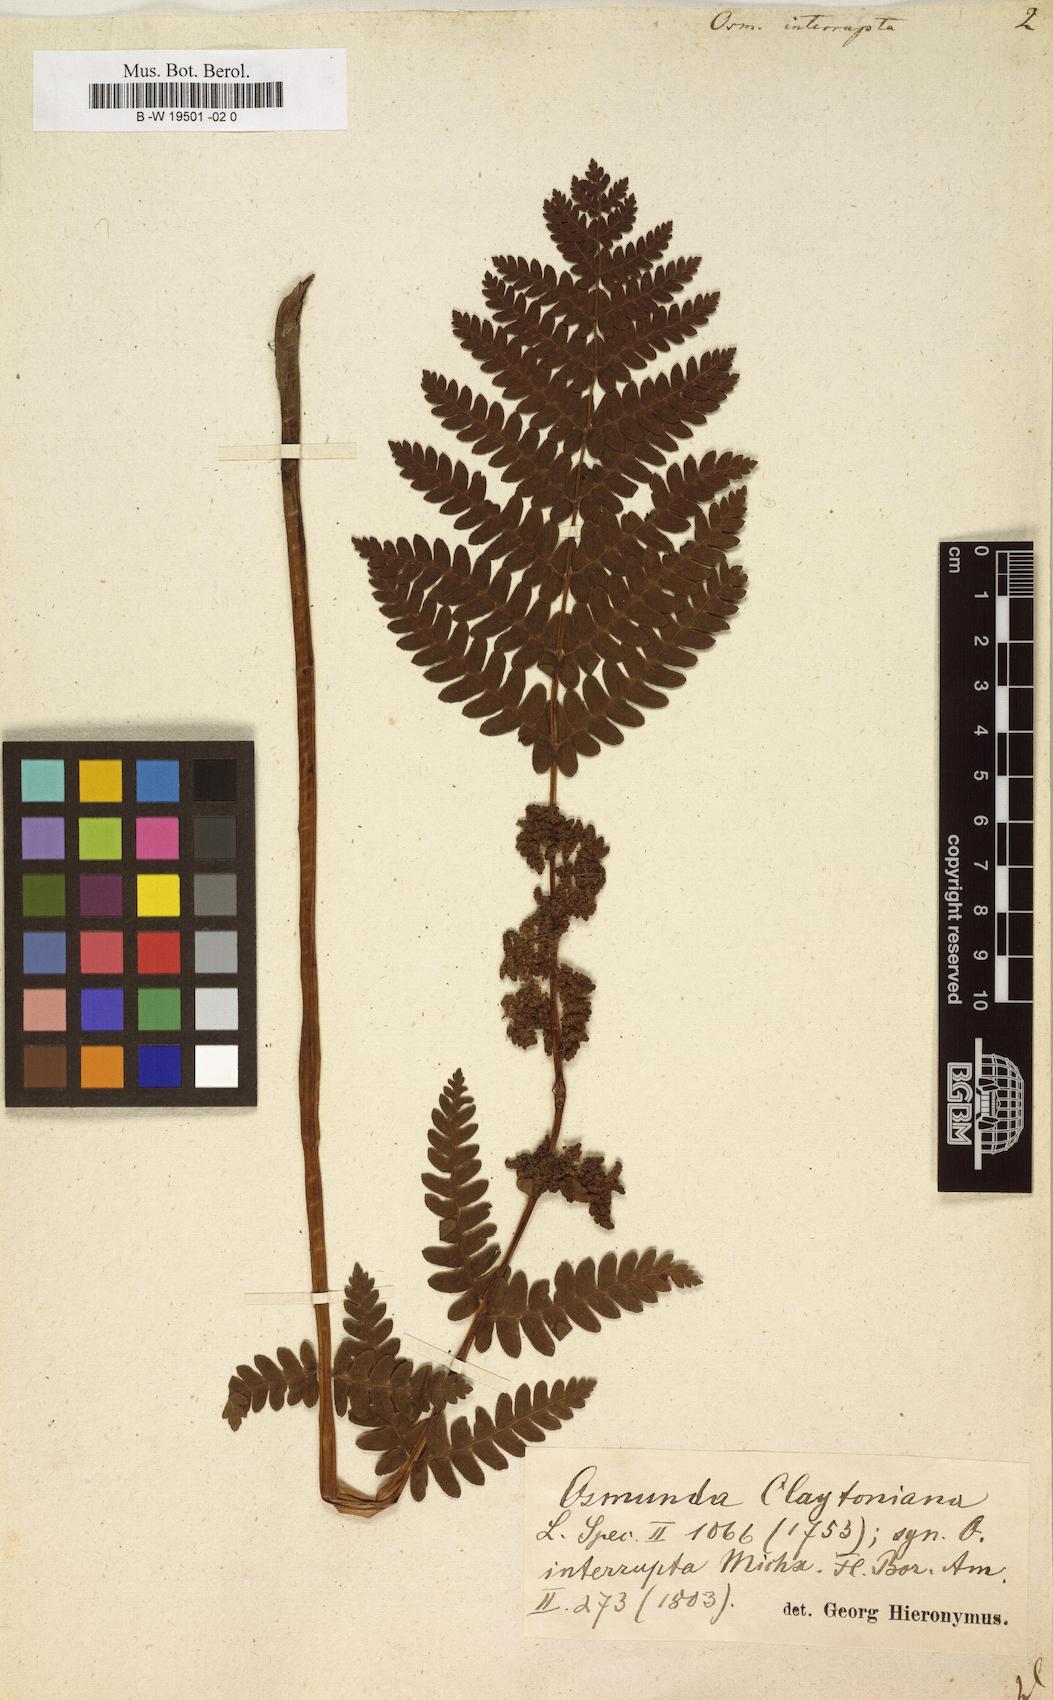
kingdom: Plantae
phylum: Tracheophyta
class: Polypodiopsida
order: Osmundales
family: Osmundaceae
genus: Claytosmunda
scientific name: Claytosmunda claytoniana
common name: Clayton's fern
